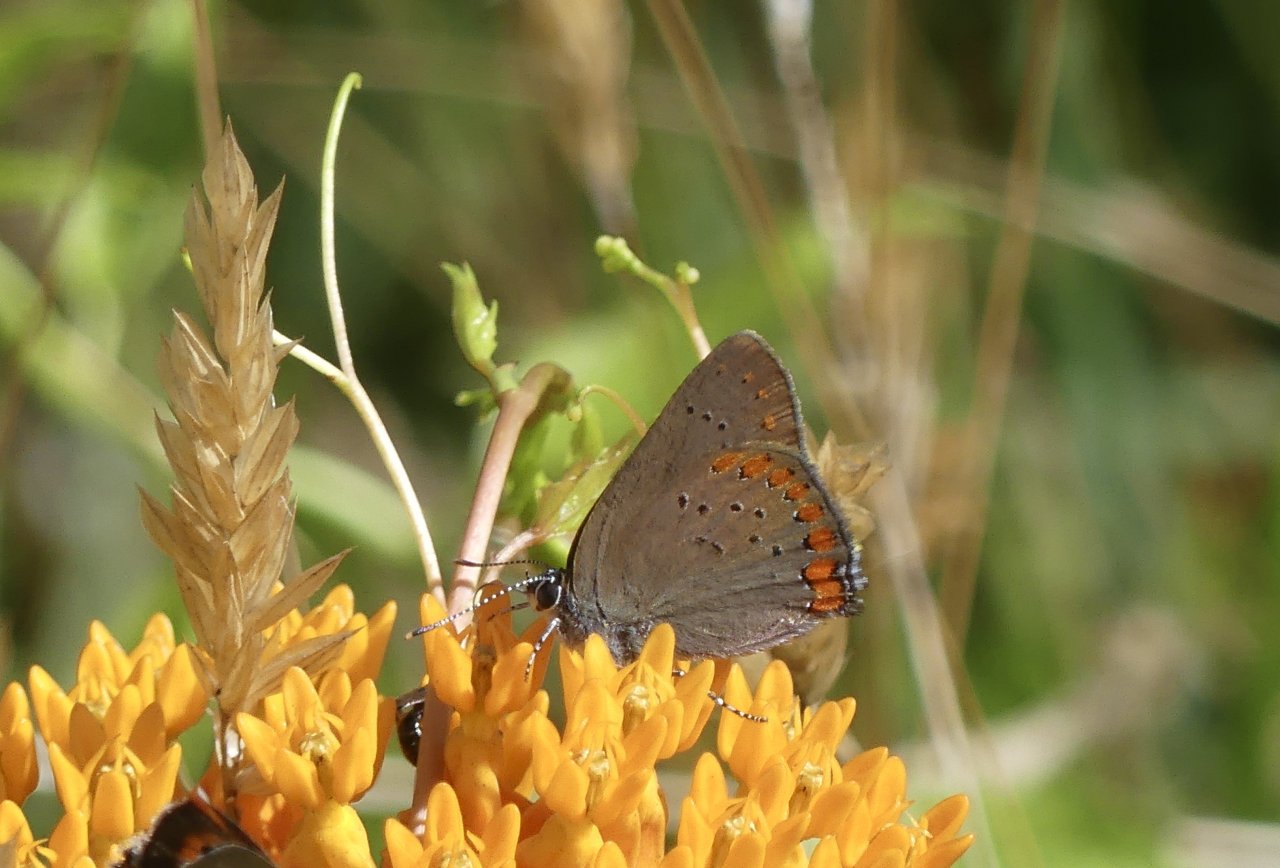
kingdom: Animalia
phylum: Arthropoda
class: Insecta
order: Lepidoptera
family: Lycaenidae
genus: Harkenclenus
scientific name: Harkenclenus titus
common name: Coral Hairstreak
